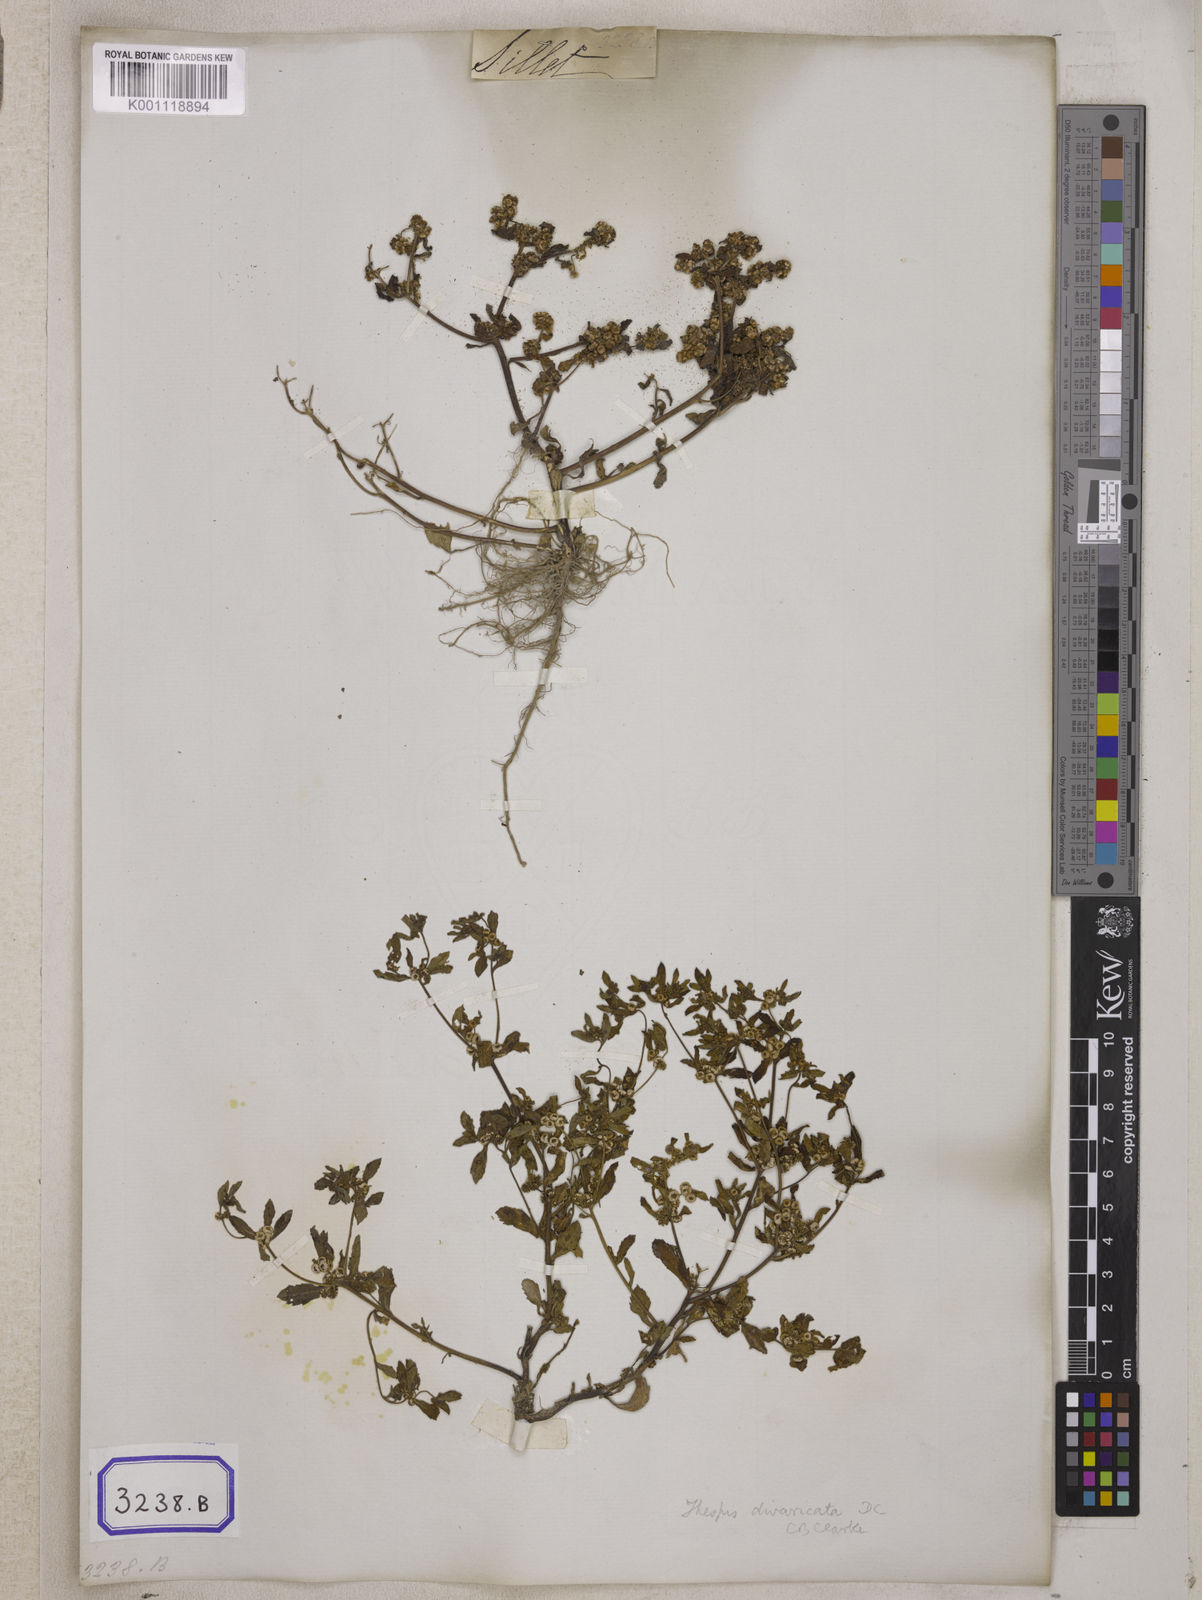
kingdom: Plantae
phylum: Tracheophyta
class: Magnoliopsida
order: Asterales
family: Asteraceae
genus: Thespis
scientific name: Thespis divaricata
